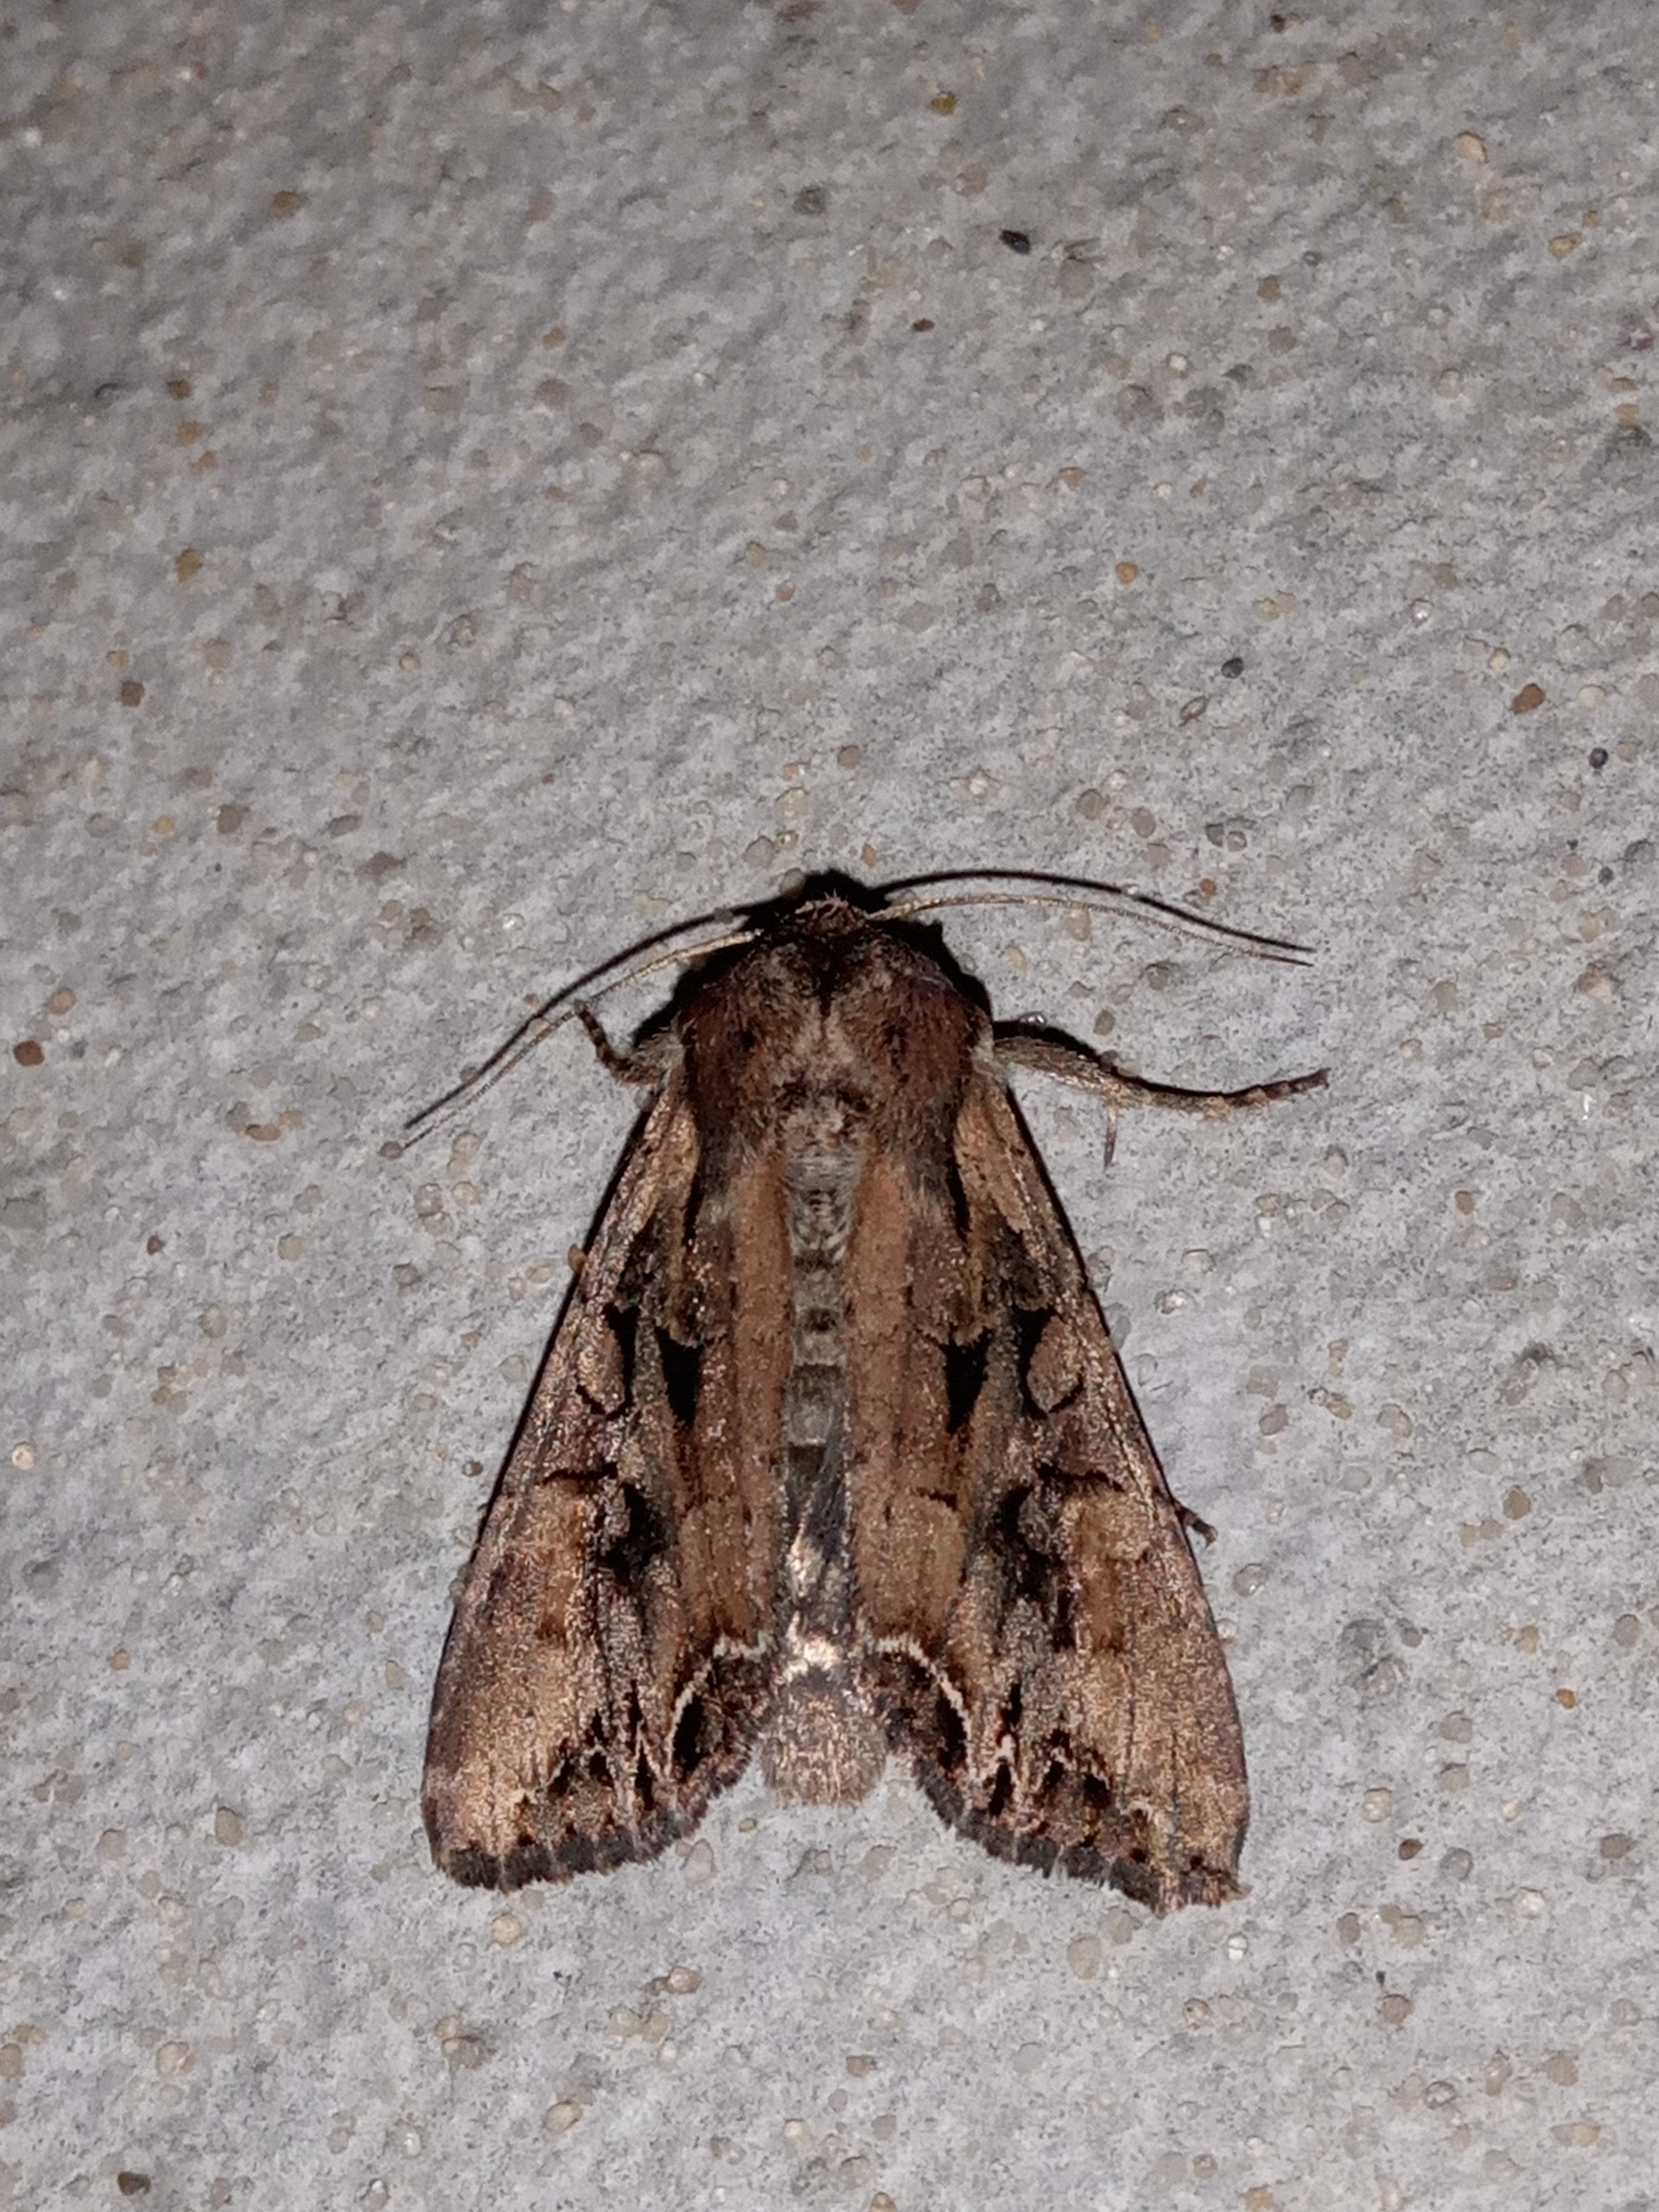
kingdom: Animalia
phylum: Arthropoda
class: Insecta
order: Lepidoptera
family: Noctuidae
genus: Lacanobia
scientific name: Lacanobia suasa
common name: Røgfarvet grønsagsugle
